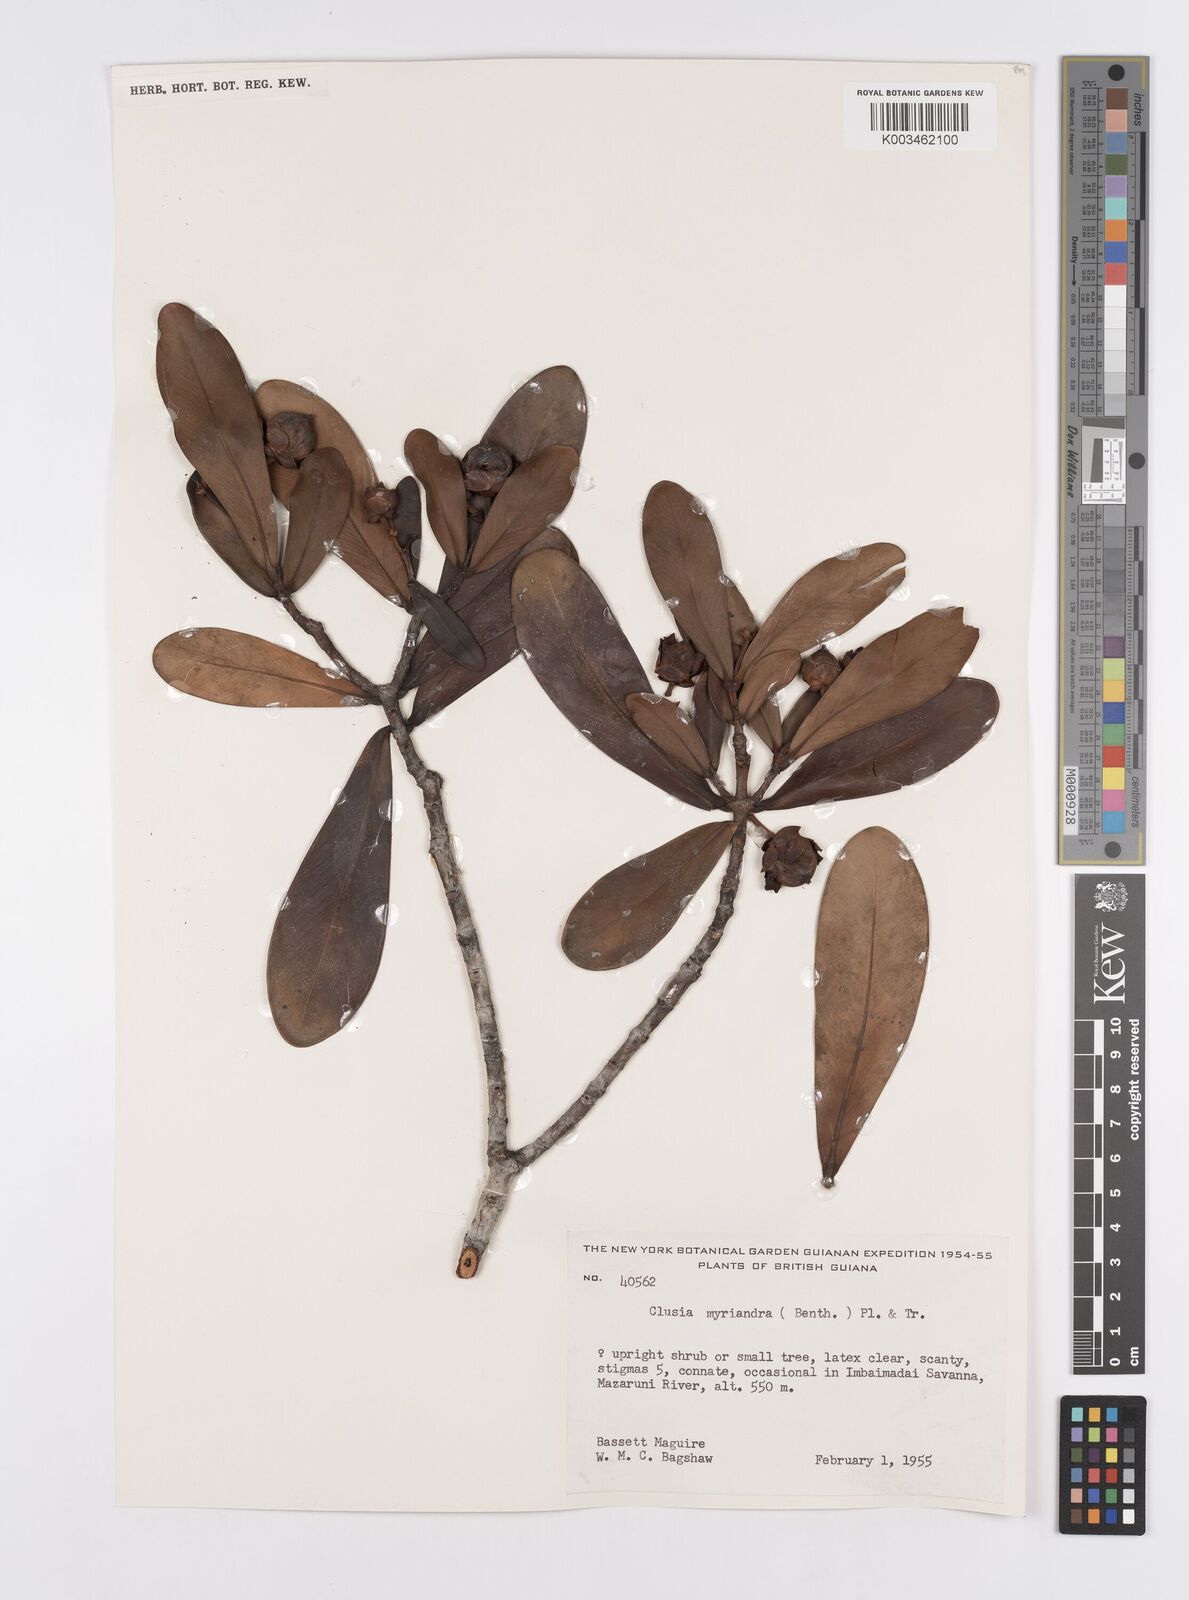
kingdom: Plantae
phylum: Tracheophyta
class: Magnoliopsida
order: Malpighiales
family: Clusiaceae
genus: Clusia
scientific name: Clusia myriandra
